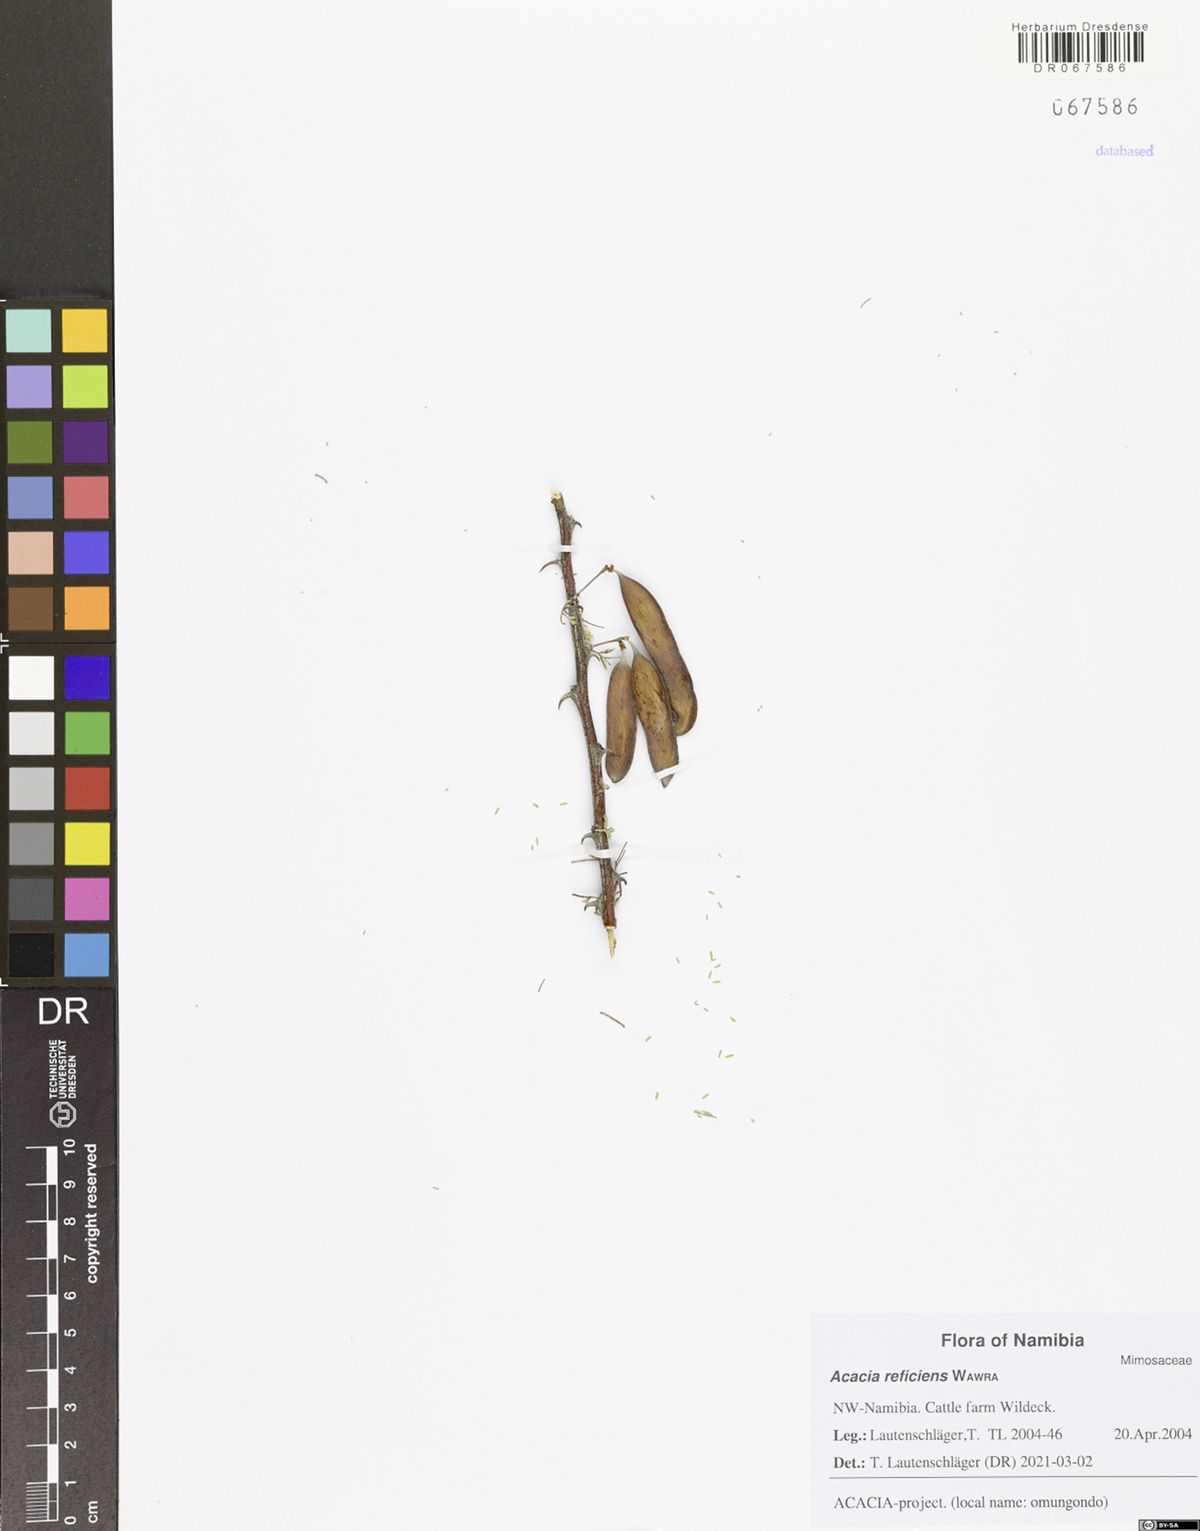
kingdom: Plantae
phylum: Tracheophyta
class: Magnoliopsida
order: Fabales
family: Fabaceae
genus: Vachellia
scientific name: Vachellia reficiens
